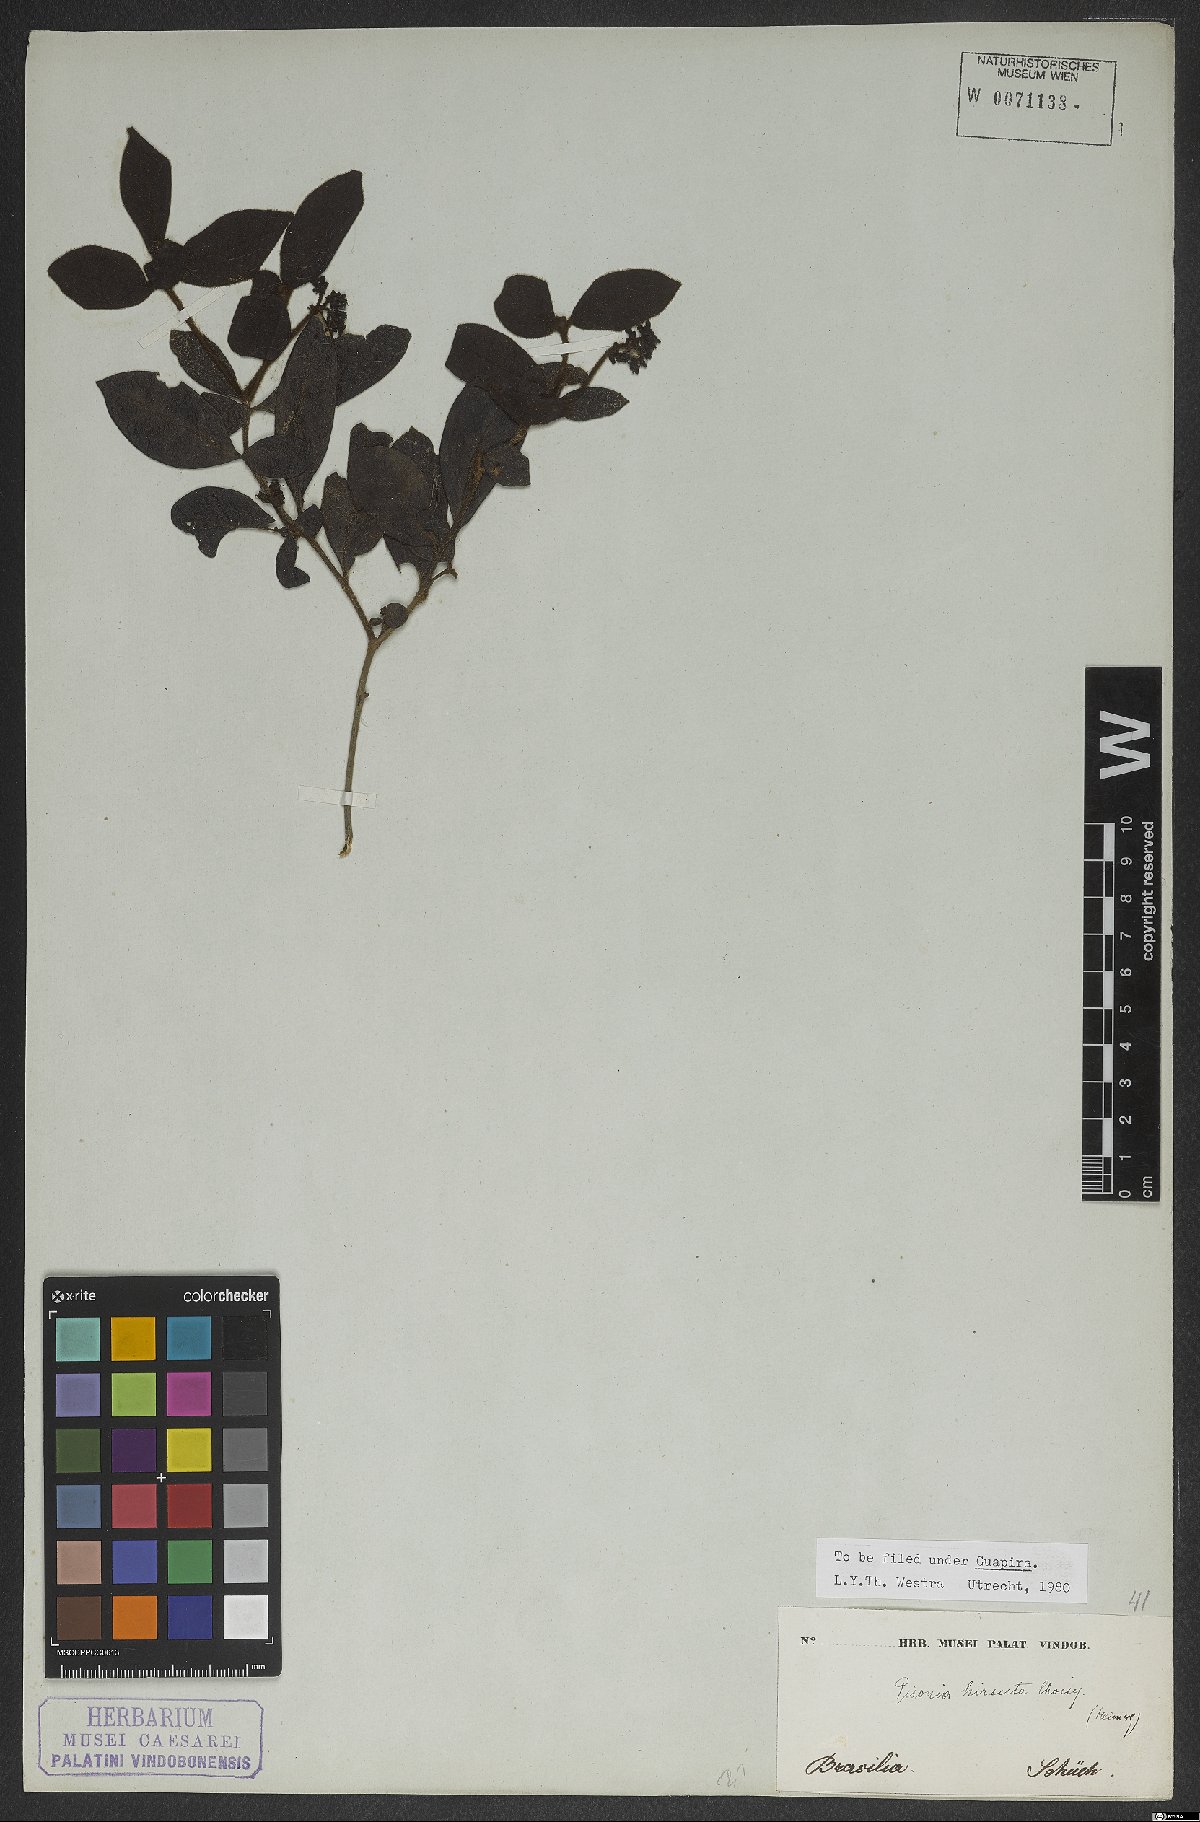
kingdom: Plantae
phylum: Tracheophyta
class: Magnoliopsida
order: Caryophyllales
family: Nyctaginaceae
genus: Guapira
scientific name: Guapira hirsuta
